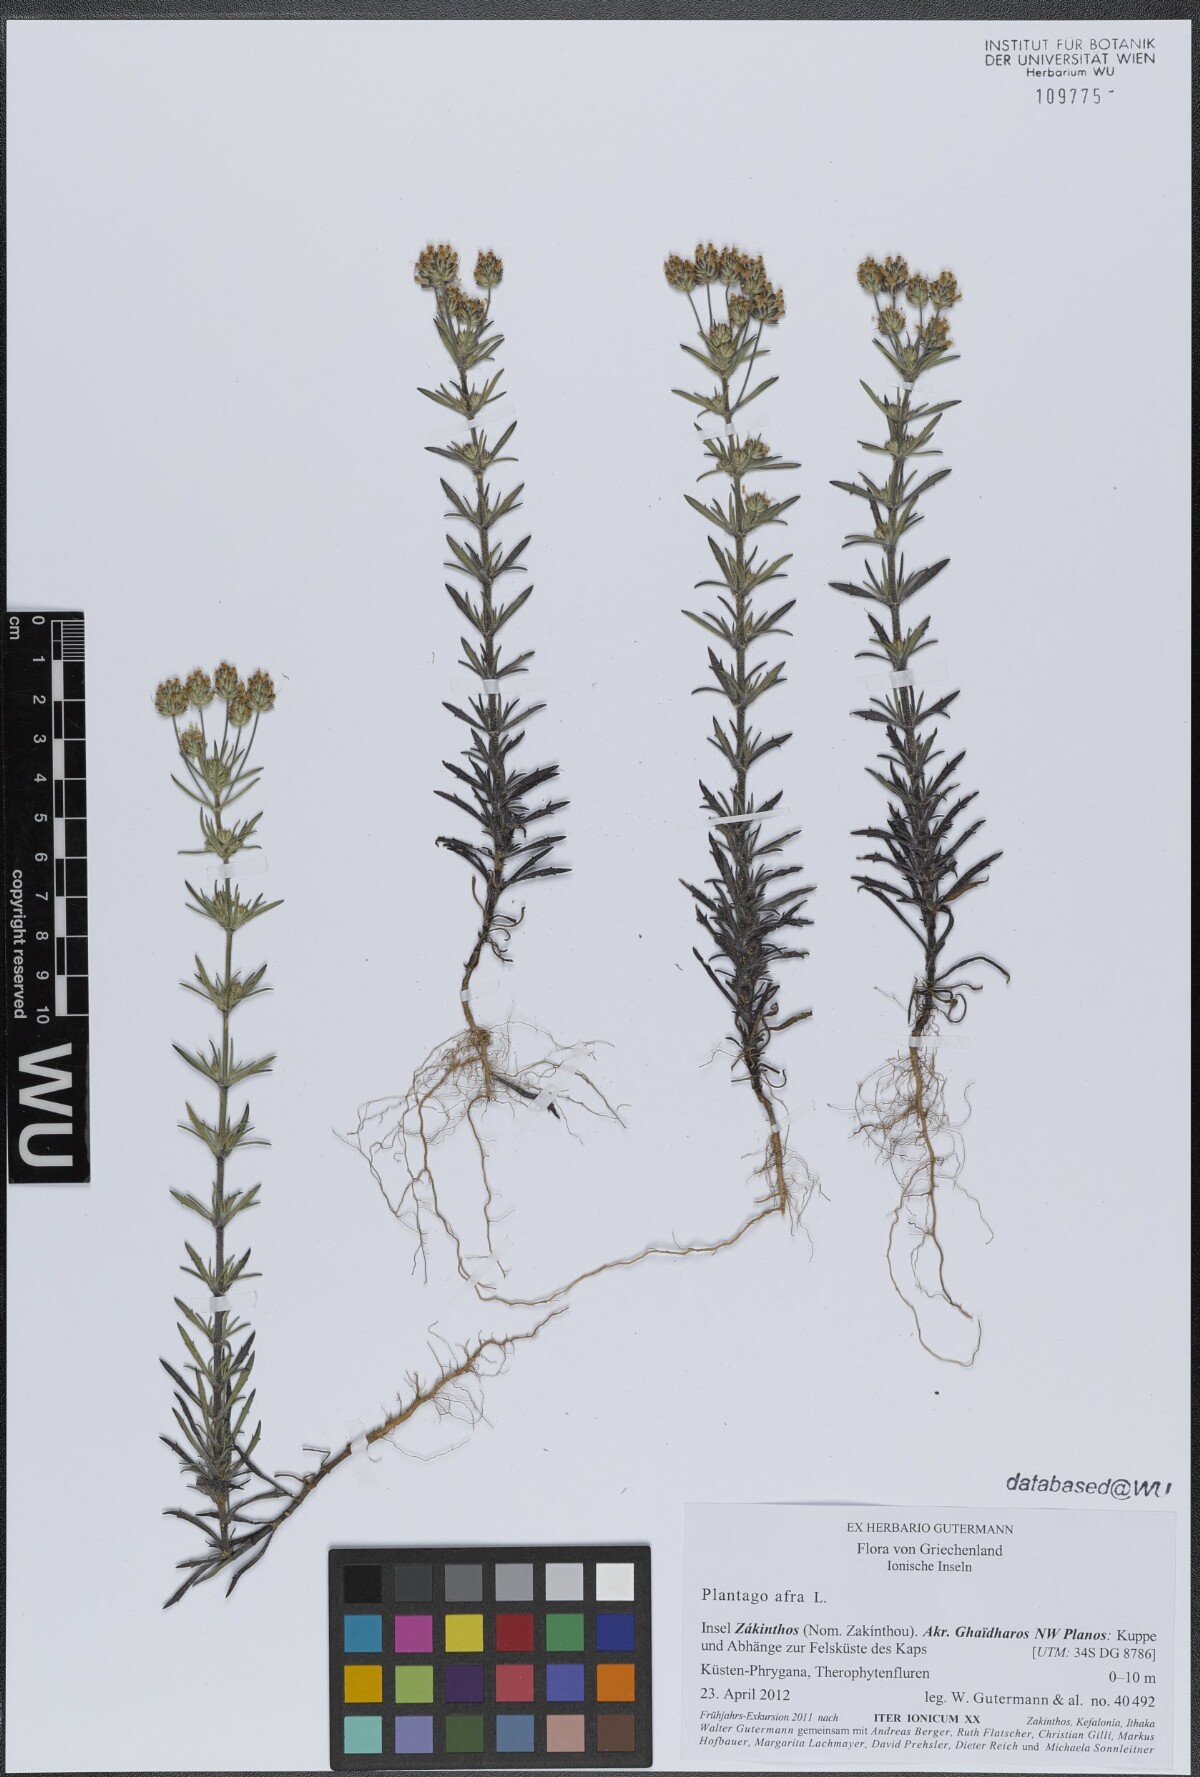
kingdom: Plantae
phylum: Tracheophyta
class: Magnoliopsida
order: Lamiales
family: Plantaginaceae
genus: Plantago
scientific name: Plantago afra
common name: Glandular plantain
